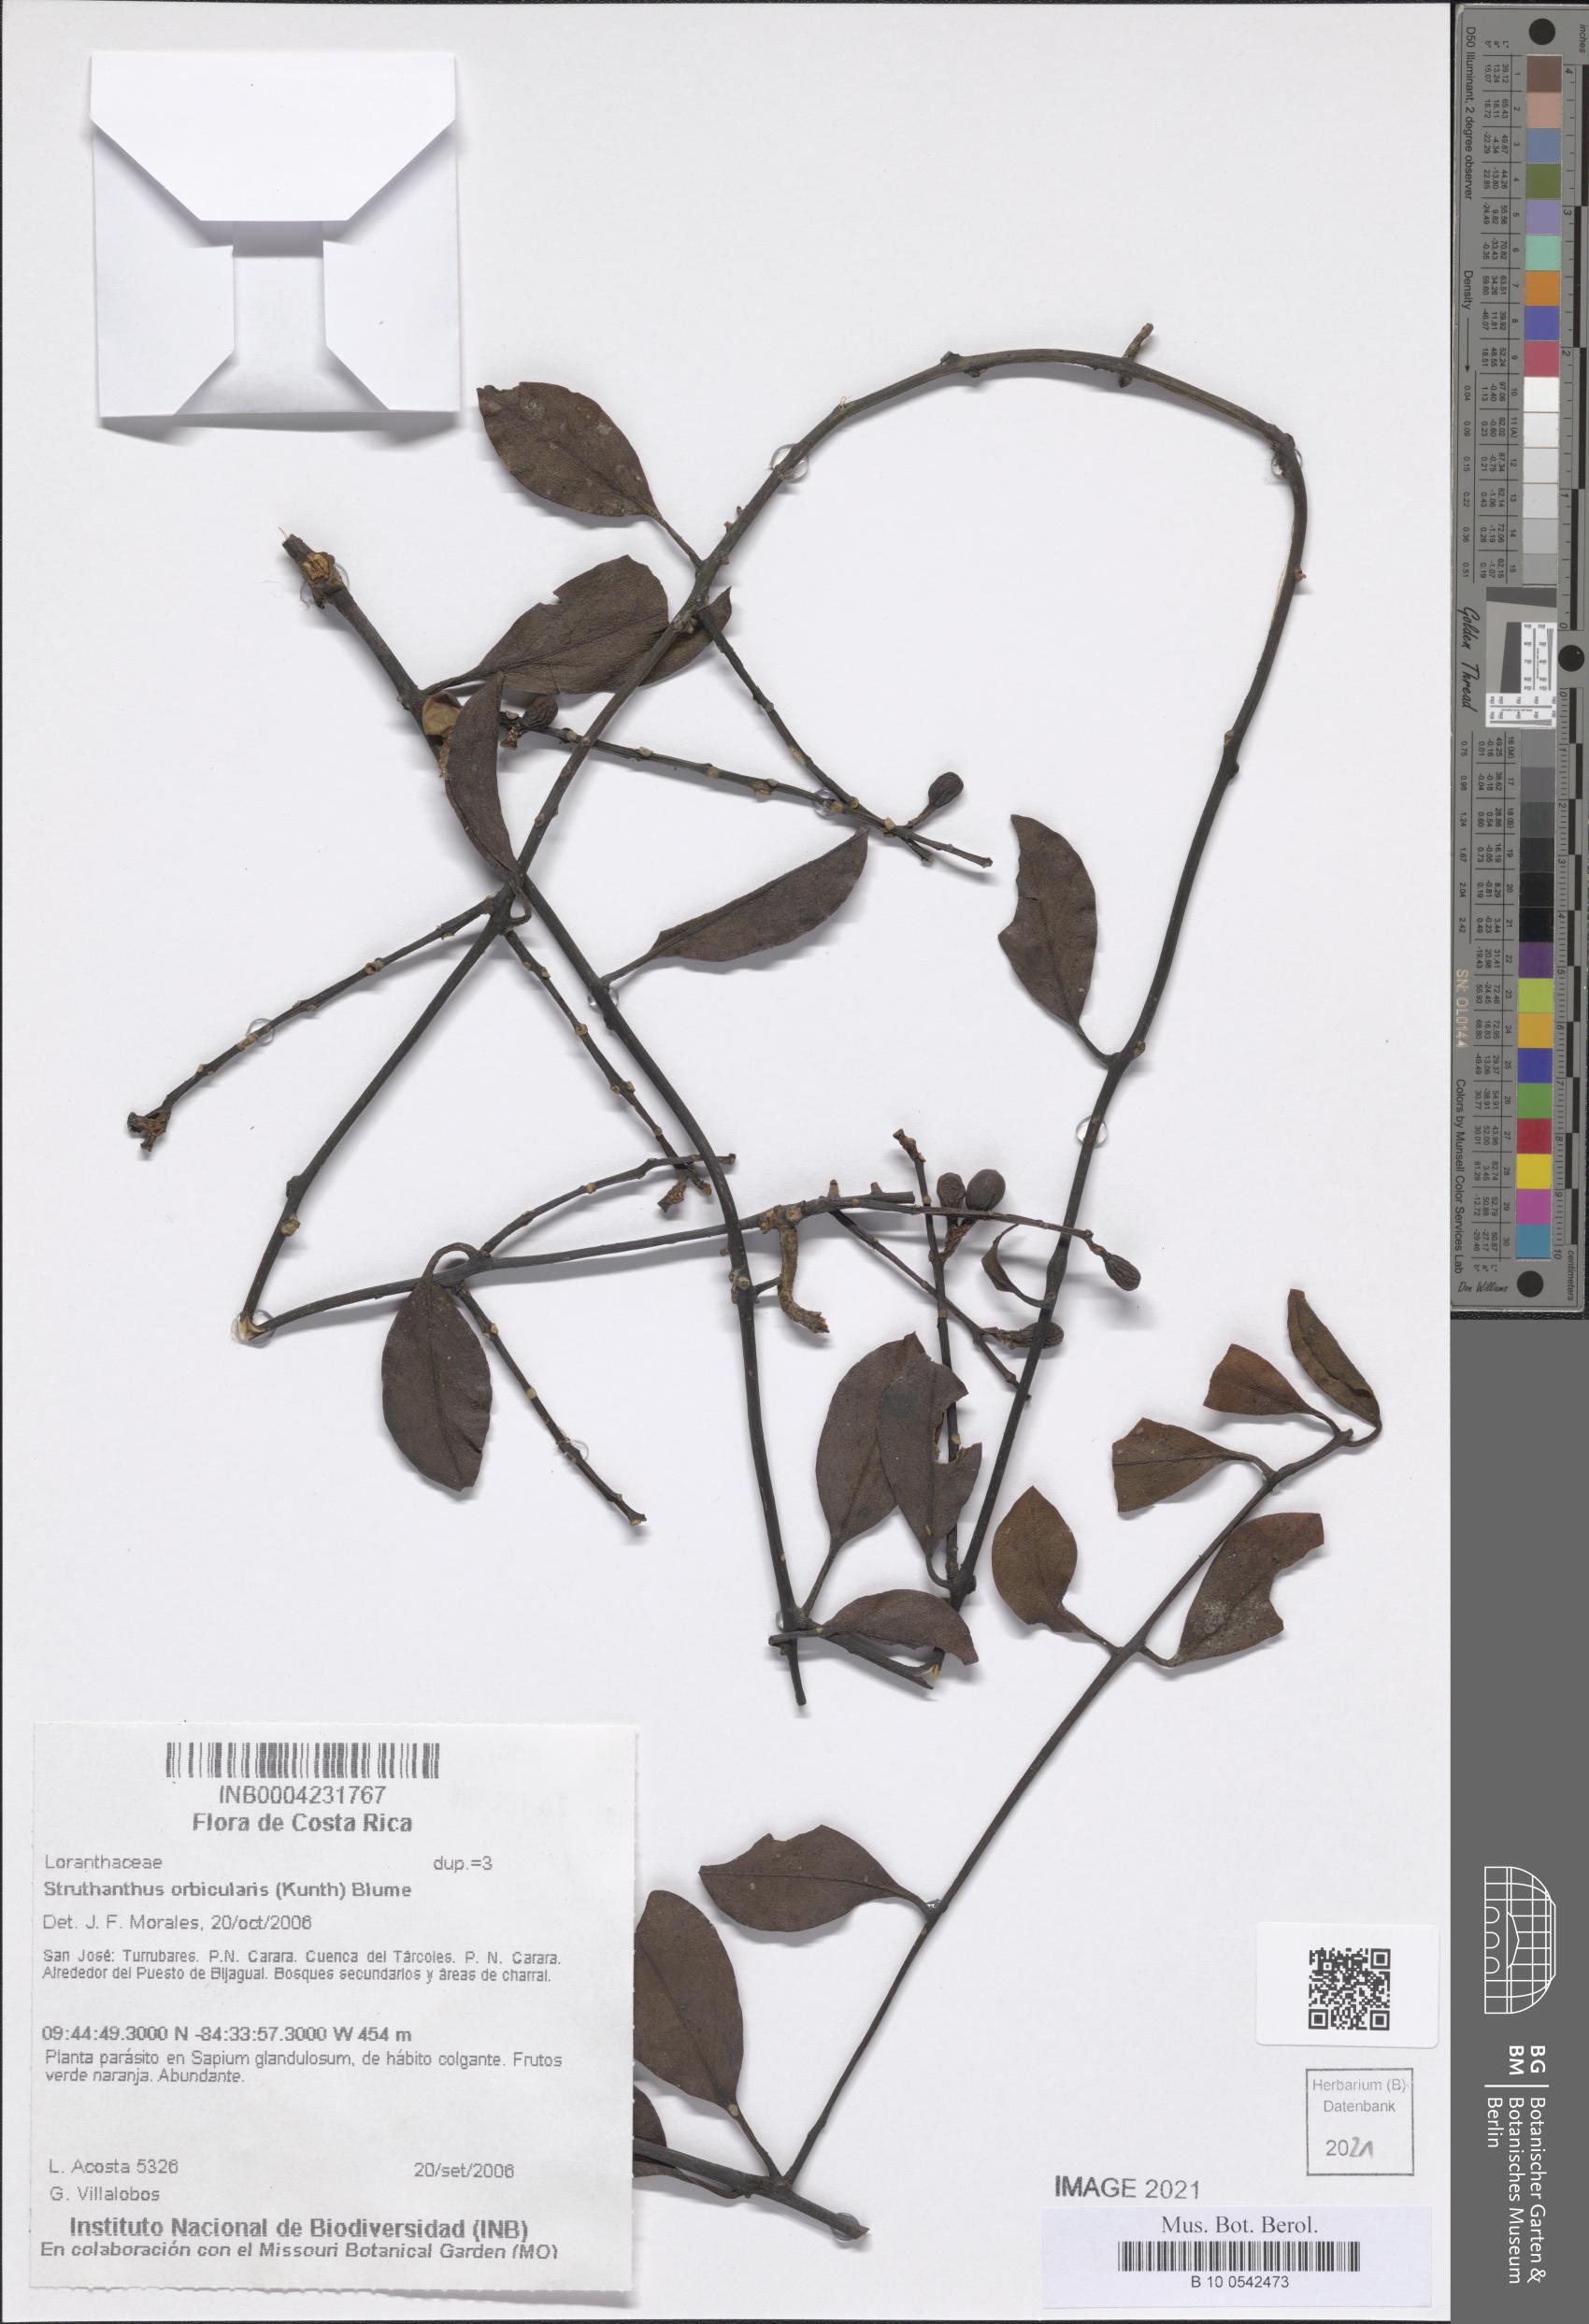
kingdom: Plantae
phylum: Tracheophyta
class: Magnoliopsida
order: Santalales
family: Loranthaceae
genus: Struthanthus
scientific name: Struthanthus orbicularis
